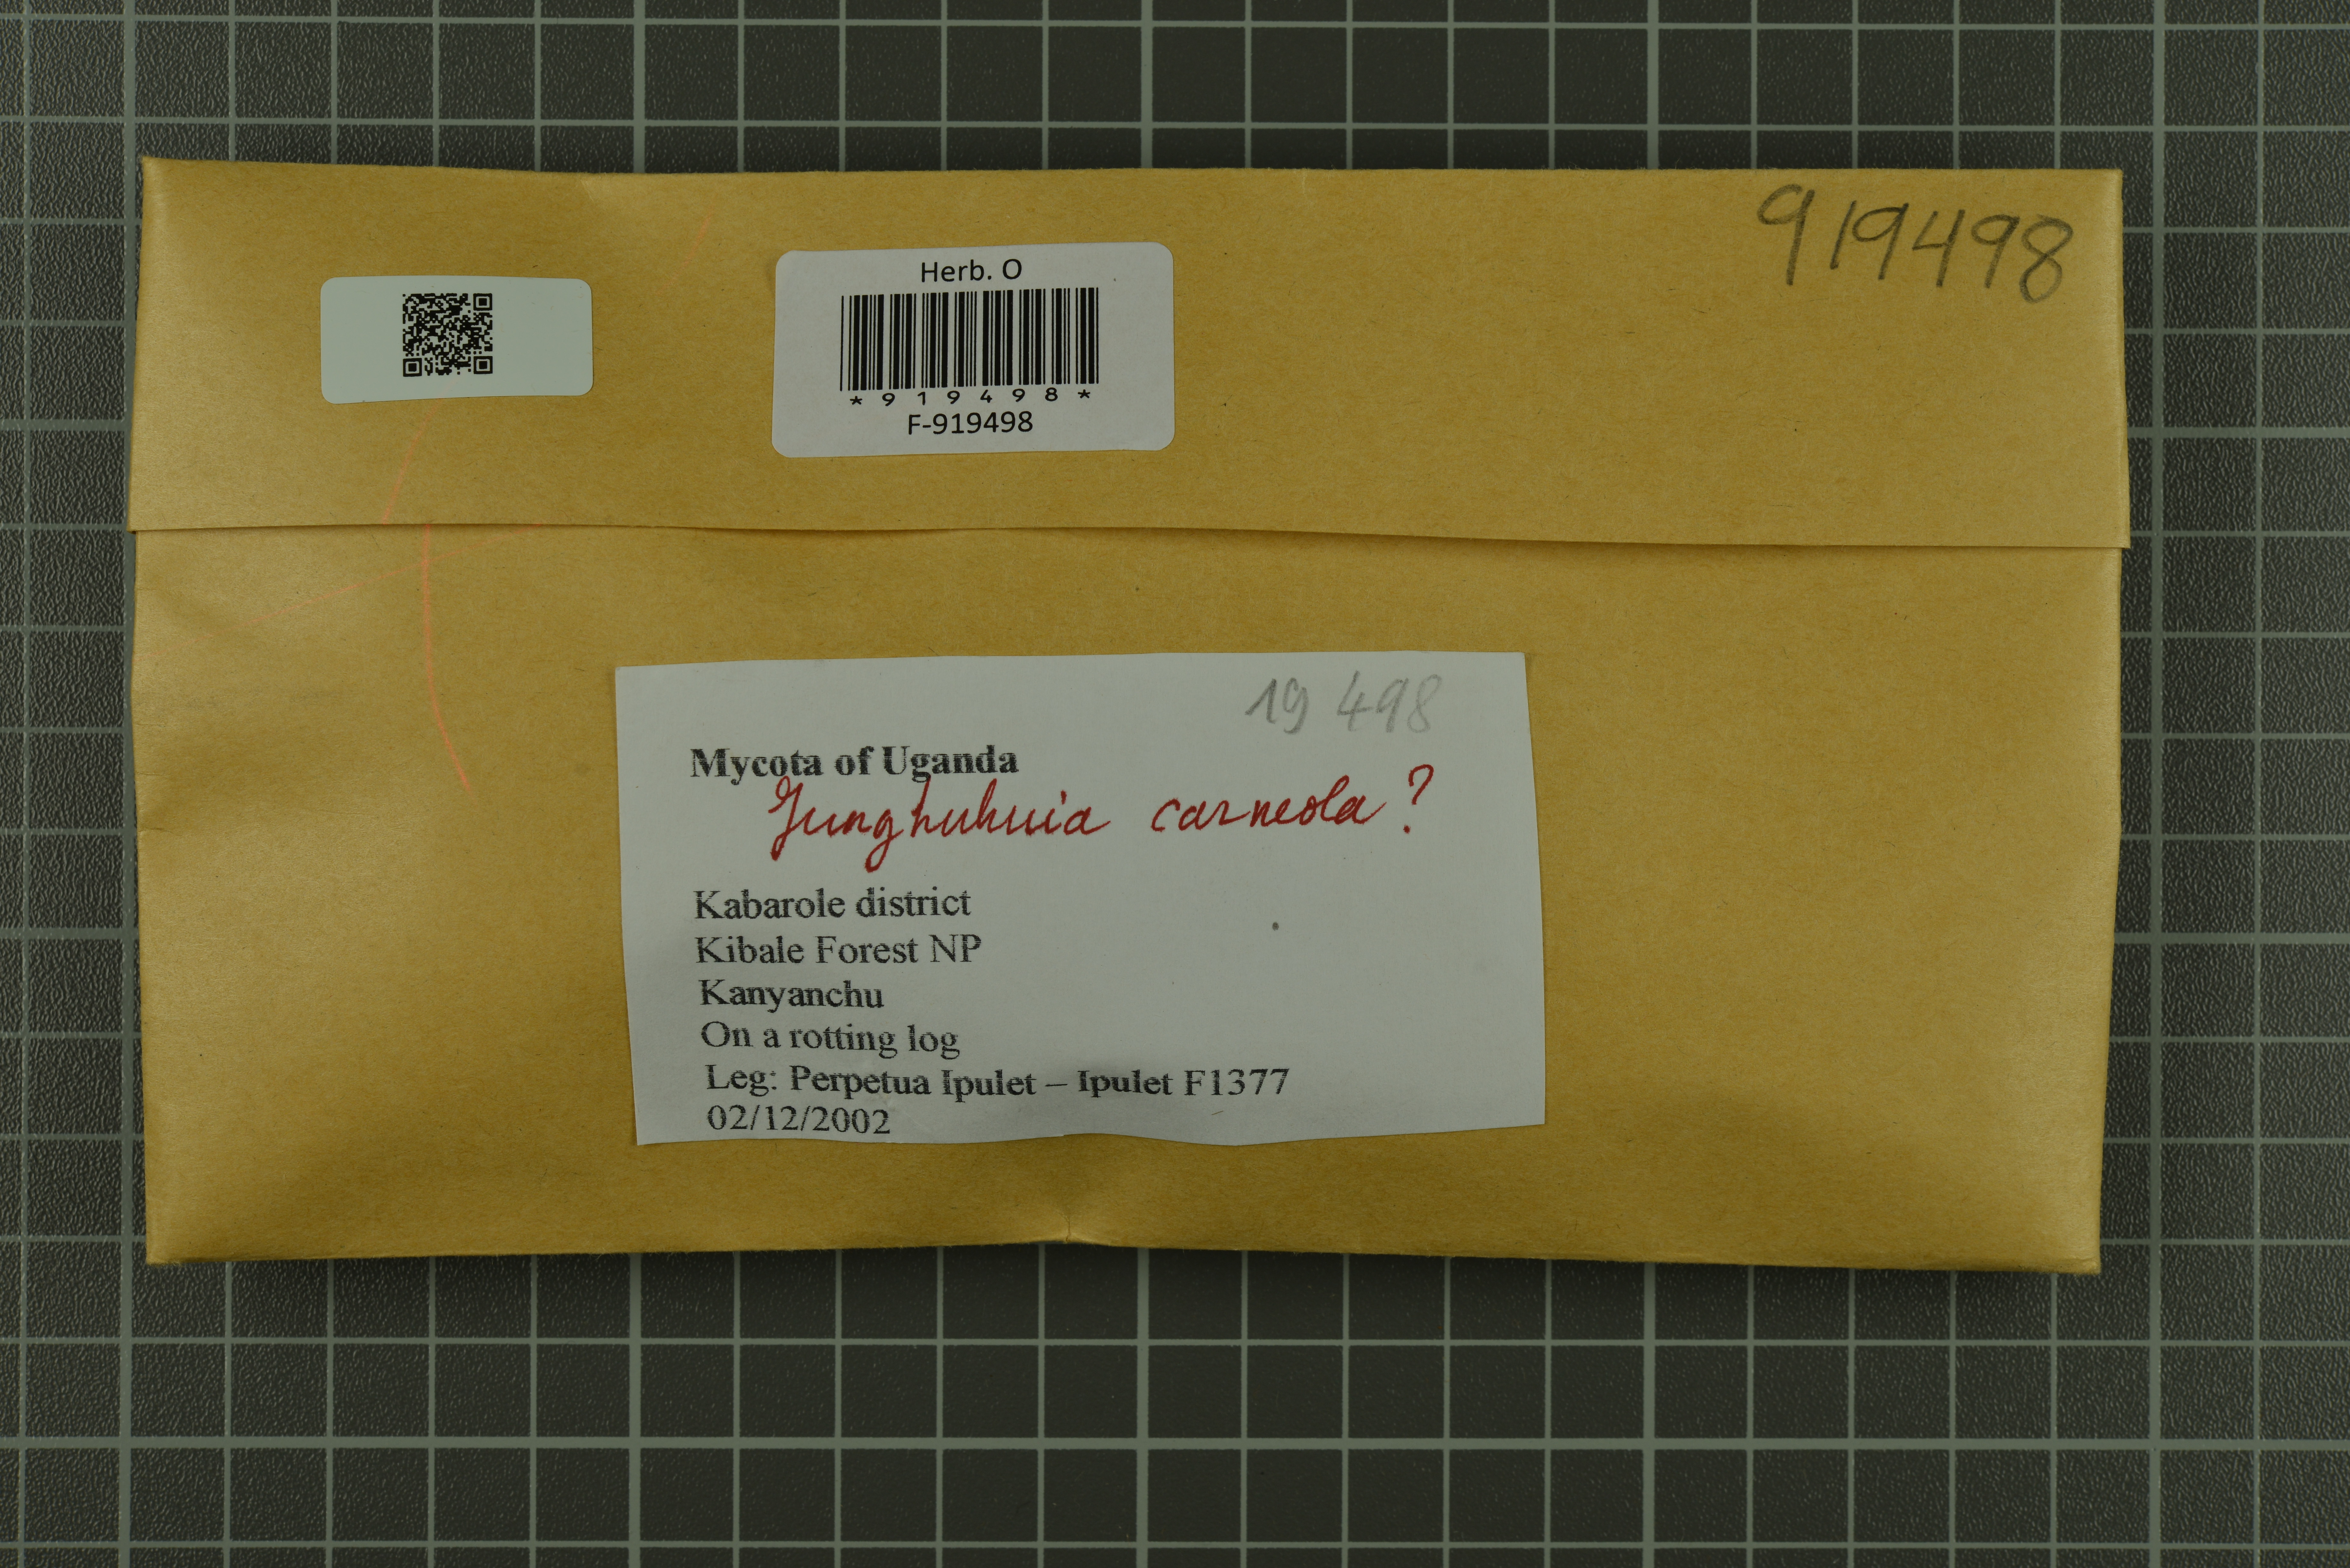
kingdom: Fungi
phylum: Basidiomycota
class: Agaricomycetes
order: Polyporales
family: Meruliaceae
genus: Geesterania
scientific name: Geesterania carneola
